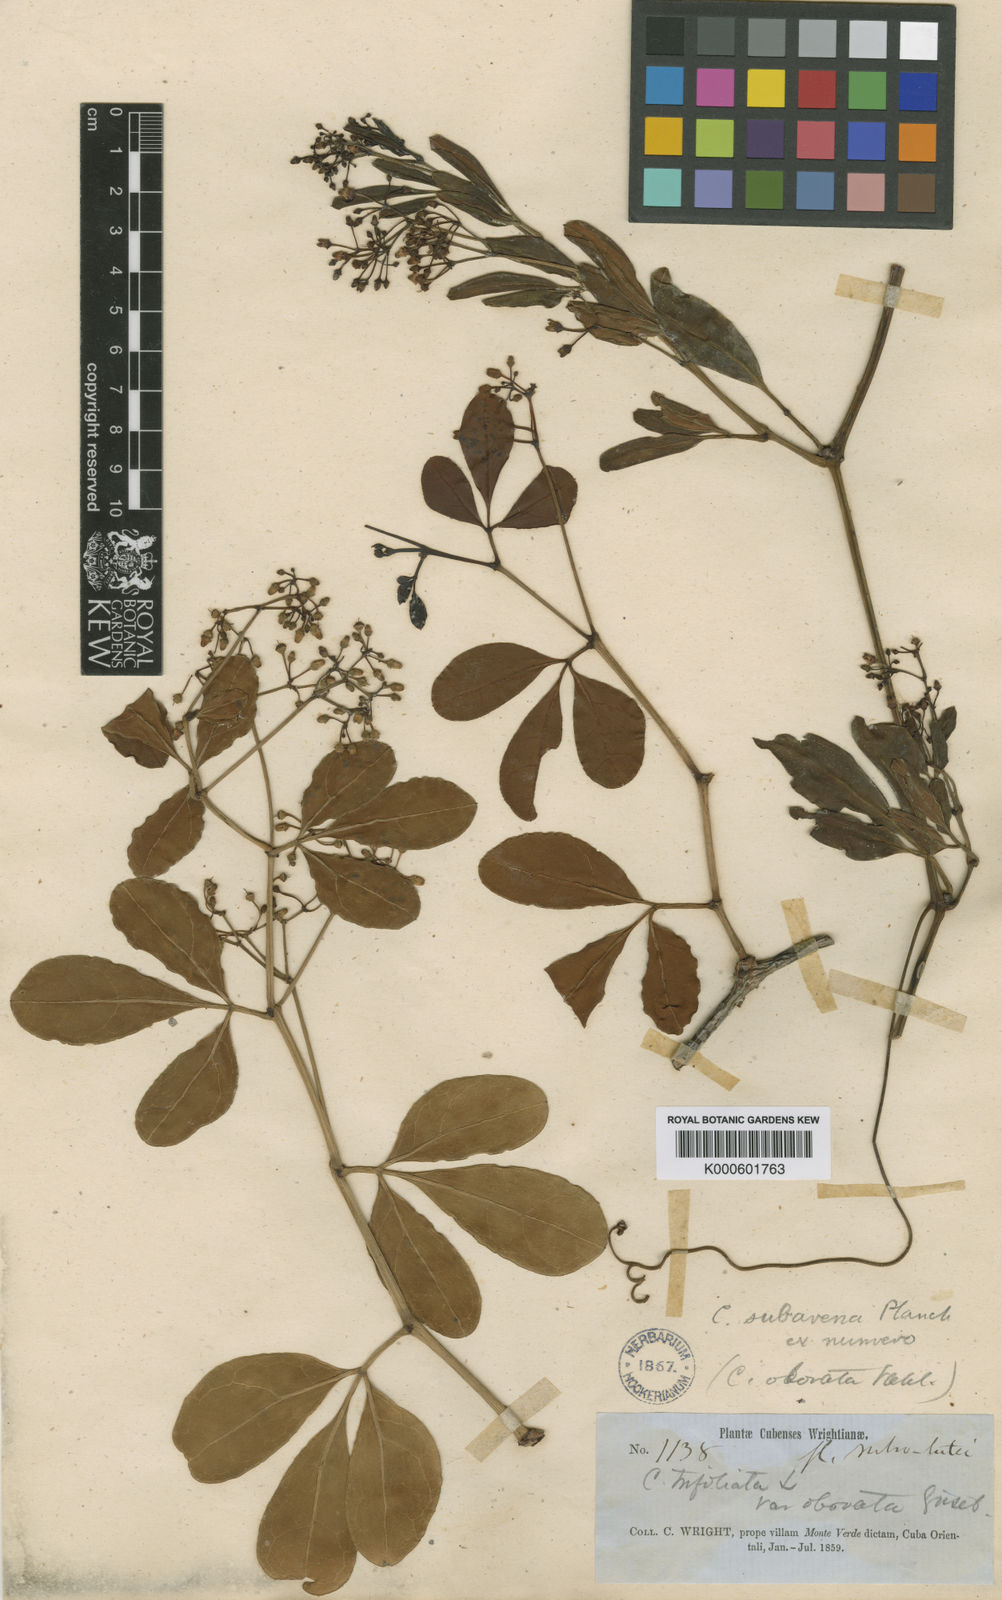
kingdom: Plantae
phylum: Tracheophyta
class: Magnoliopsida
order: Vitales
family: Vitaceae
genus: Cissus
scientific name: Cissus wrightiana
